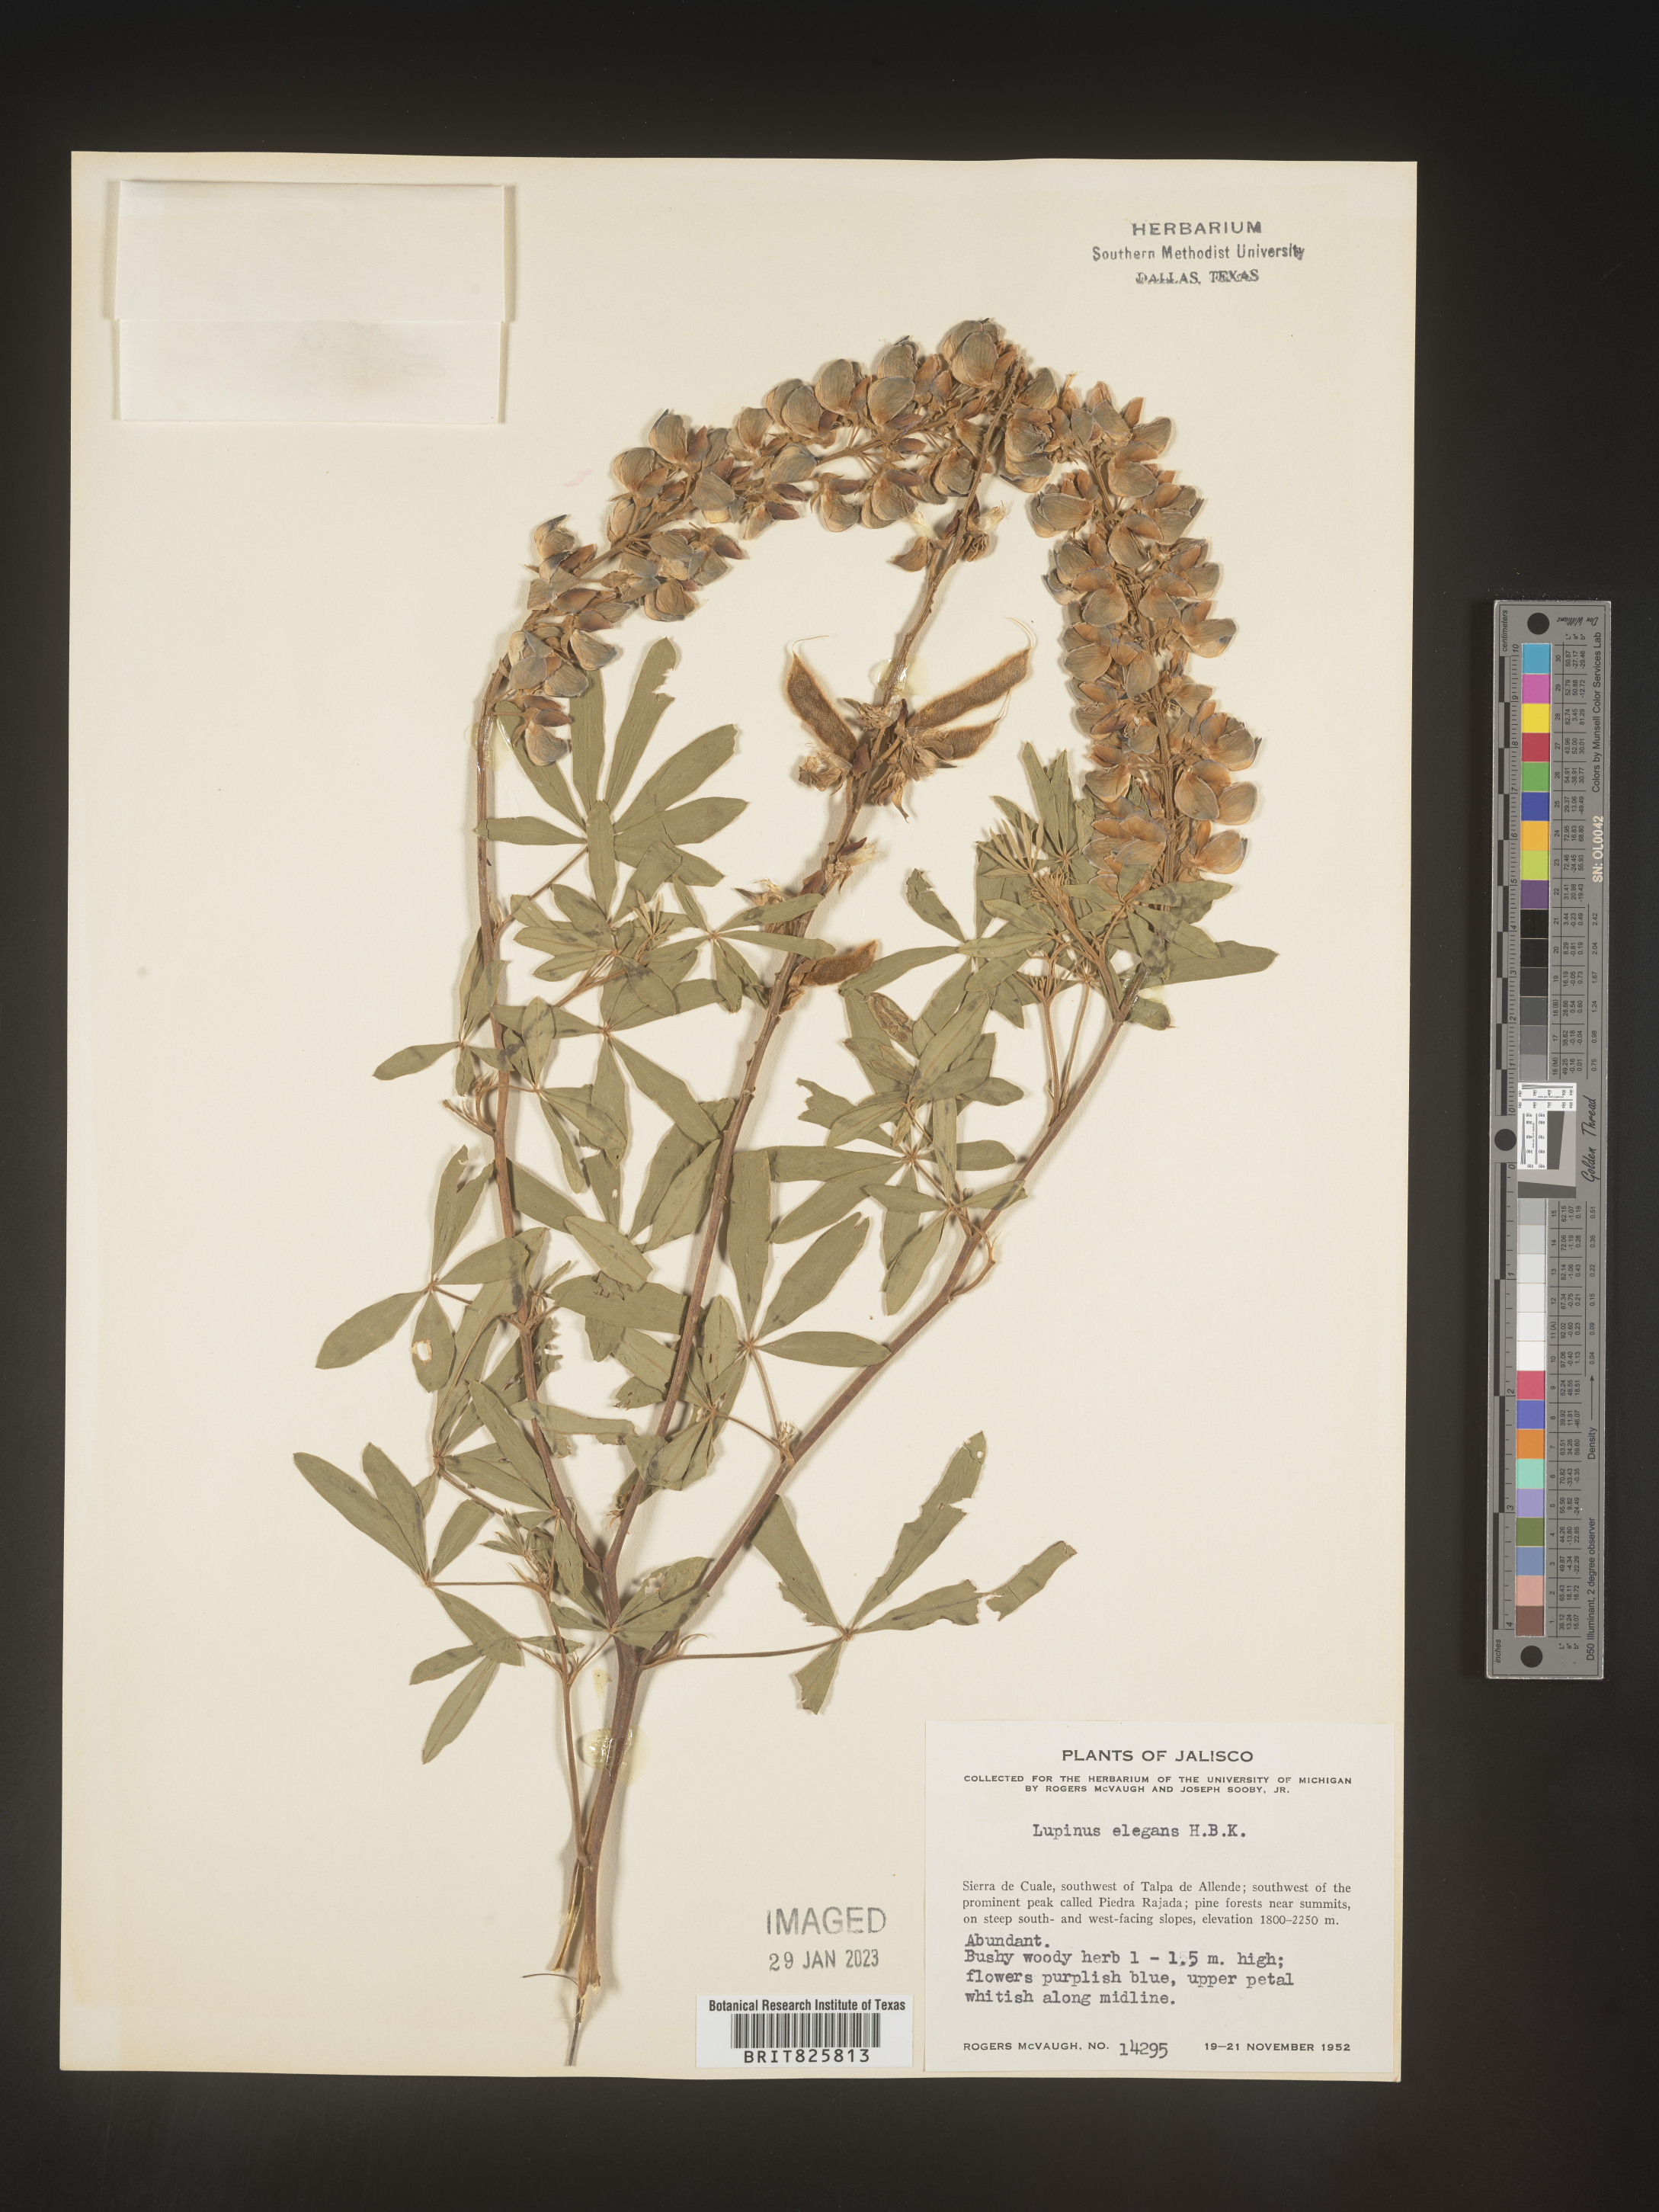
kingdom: Plantae
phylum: Tracheophyta
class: Magnoliopsida
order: Fabales
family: Fabaceae
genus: Lupinus
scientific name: Lupinus
